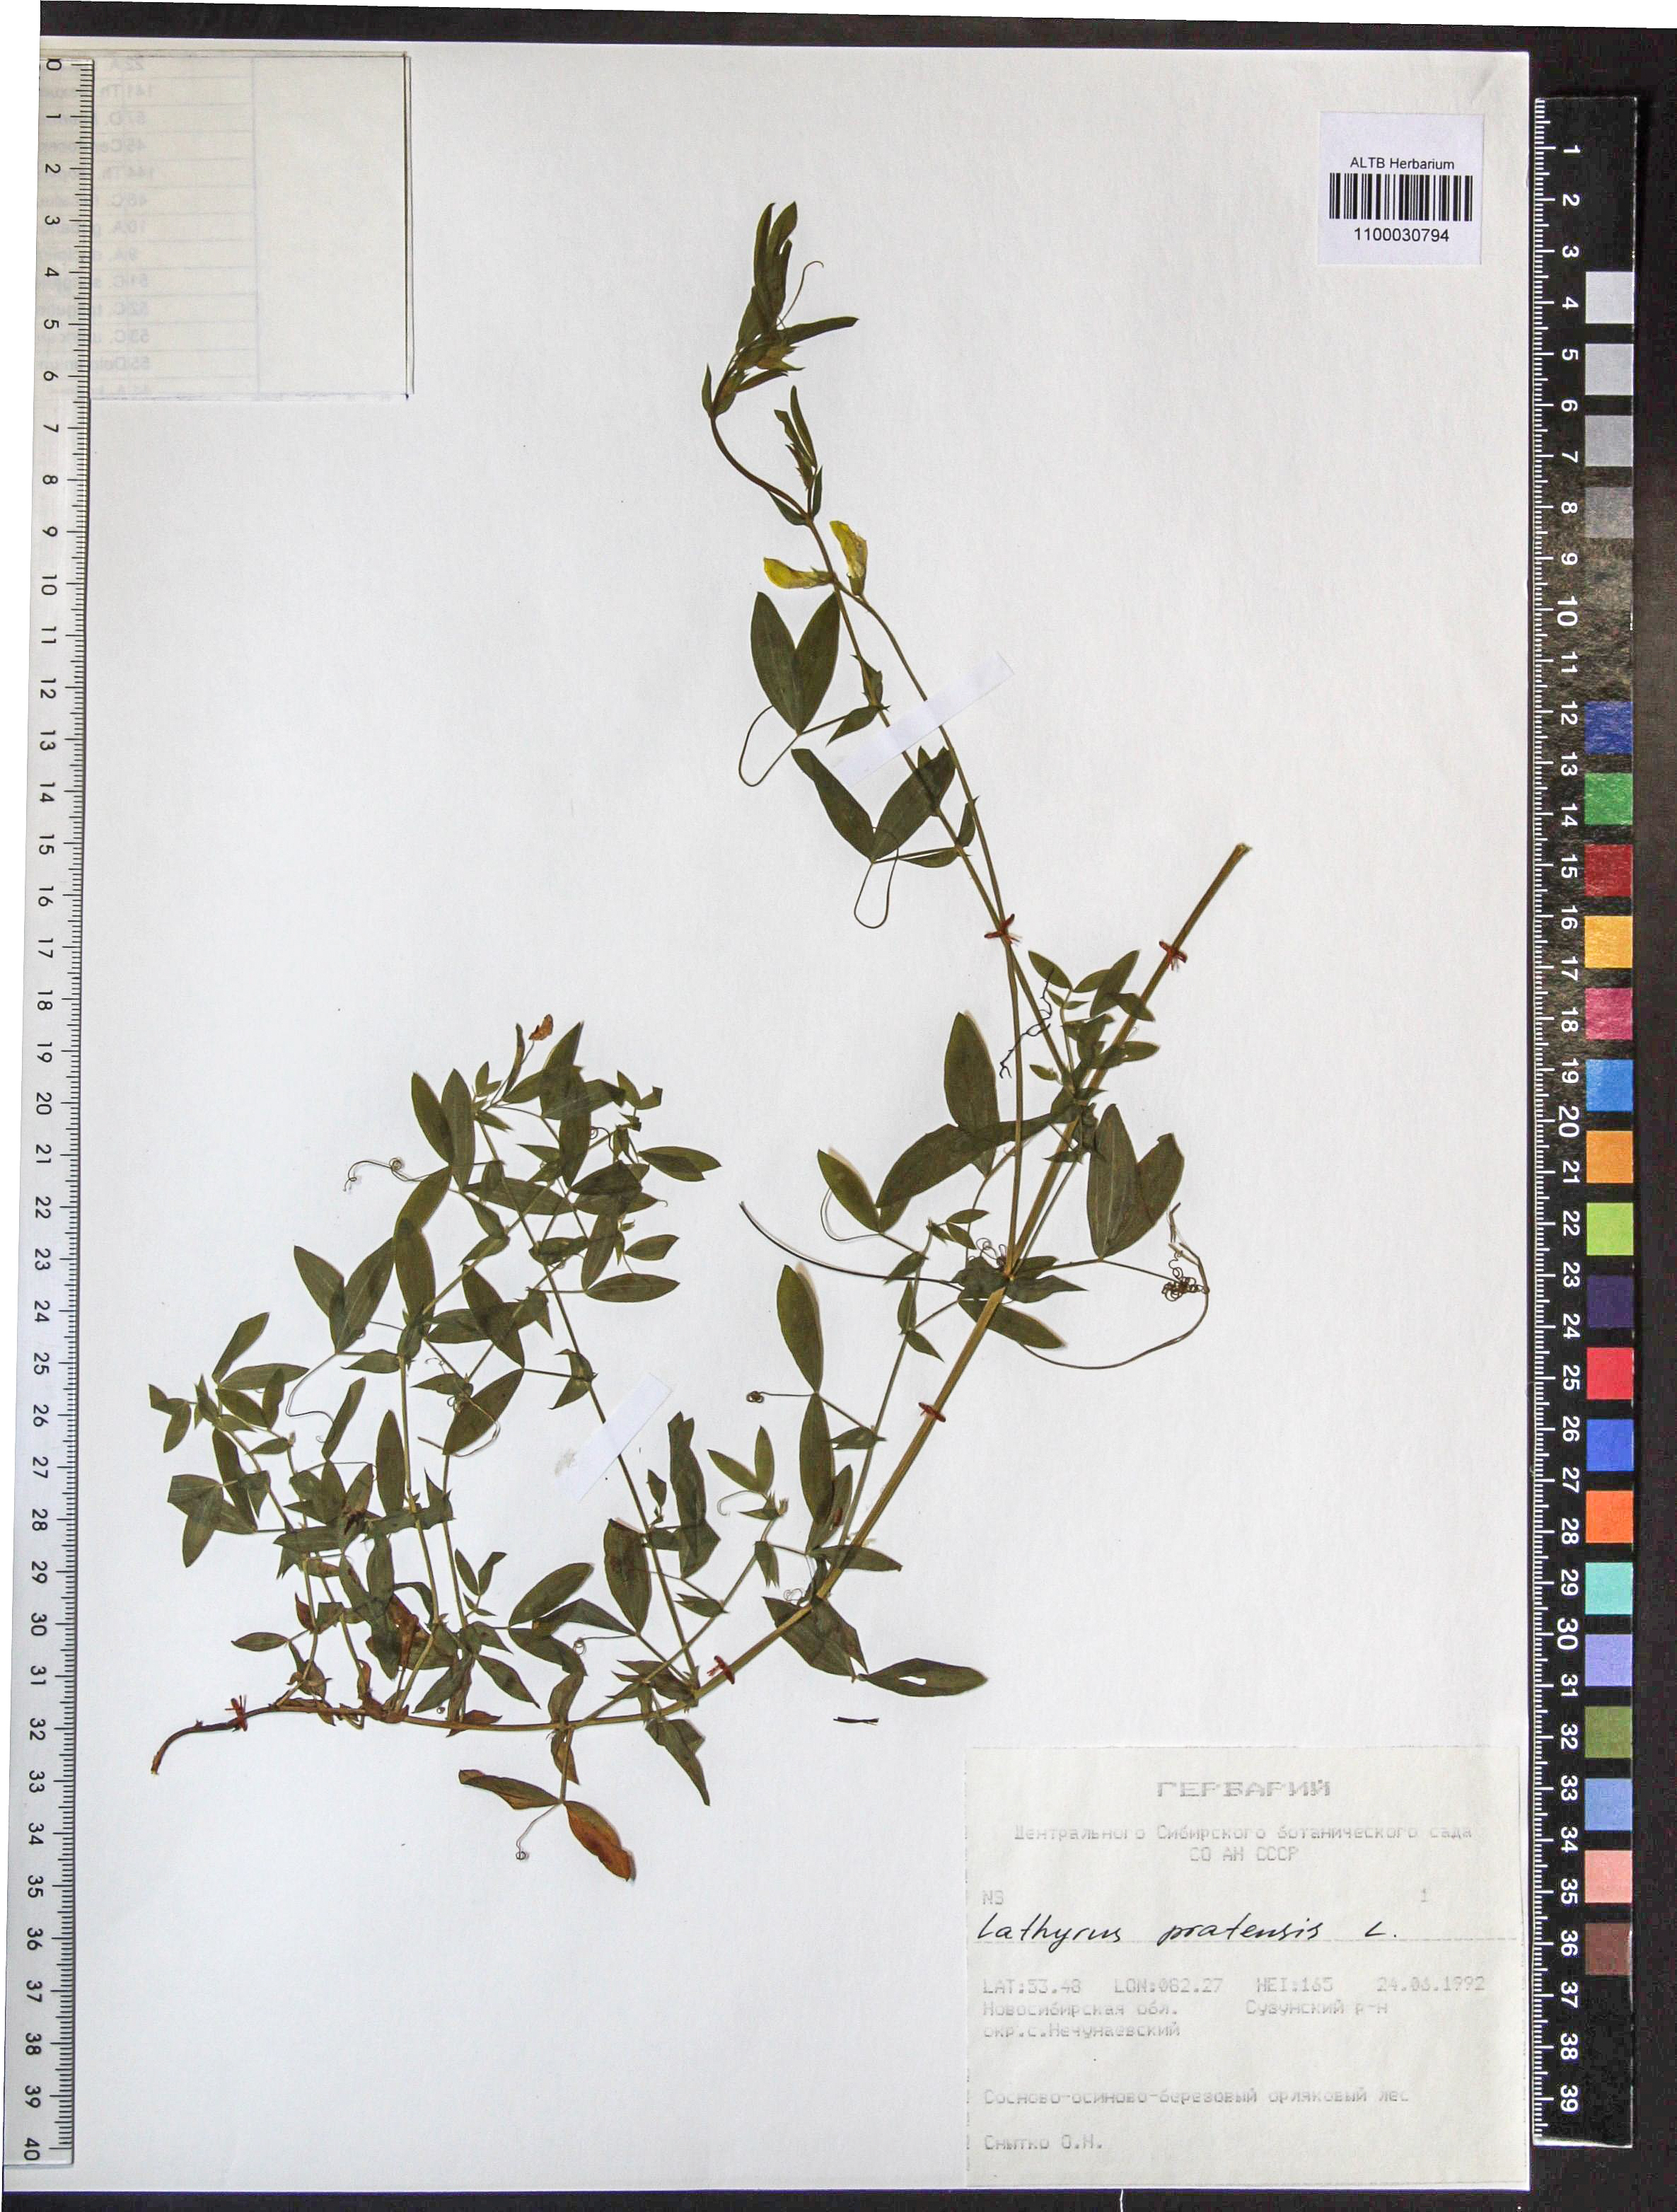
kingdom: Plantae
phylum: Tracheophyta
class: Magnoliopsida
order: Fabales
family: Fabaceae
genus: Lathyrus
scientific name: Lathyrus pratensis
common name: Meadow vetchling
